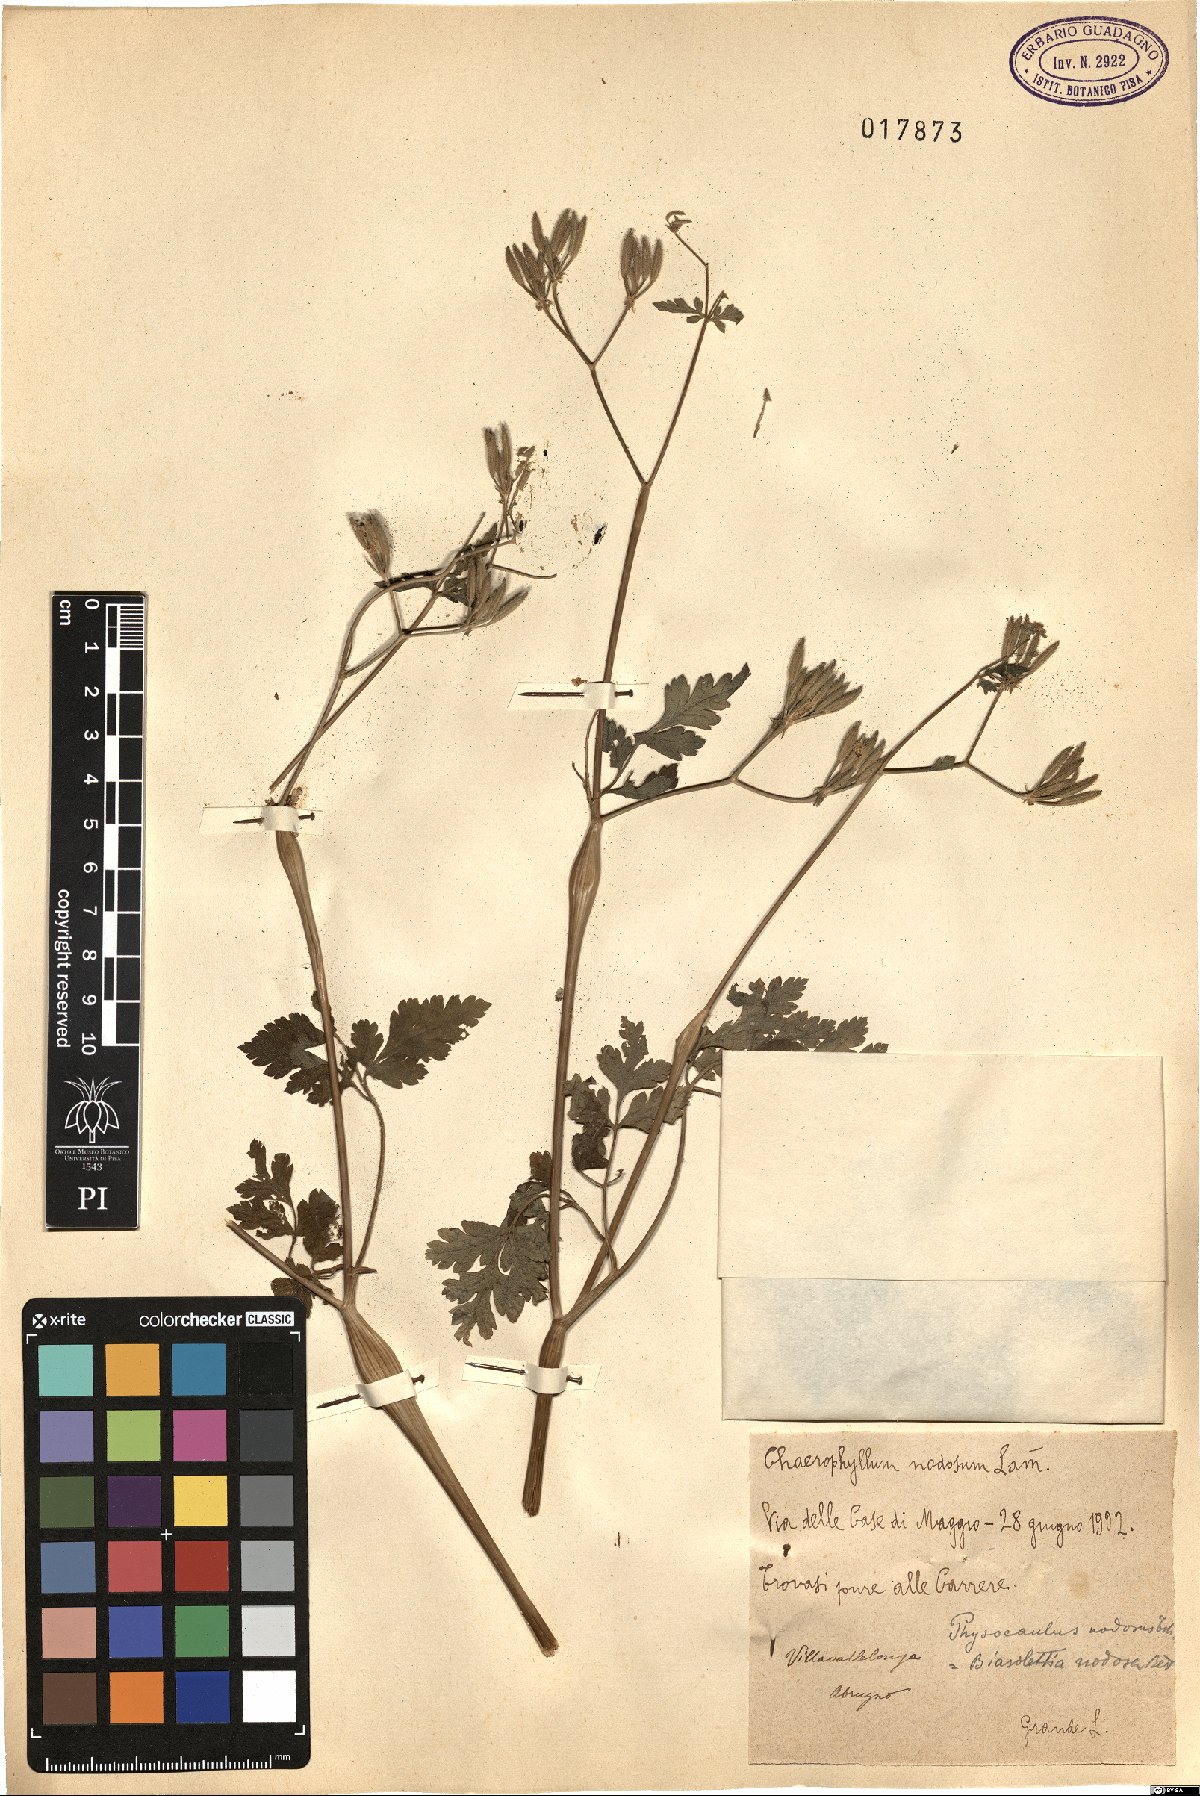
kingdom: Plantae
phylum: Tracheophyta
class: Magnoliopsida
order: Apiales
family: Apiaceae
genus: Chaerophyllum
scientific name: Chaerophyllum nodosum
